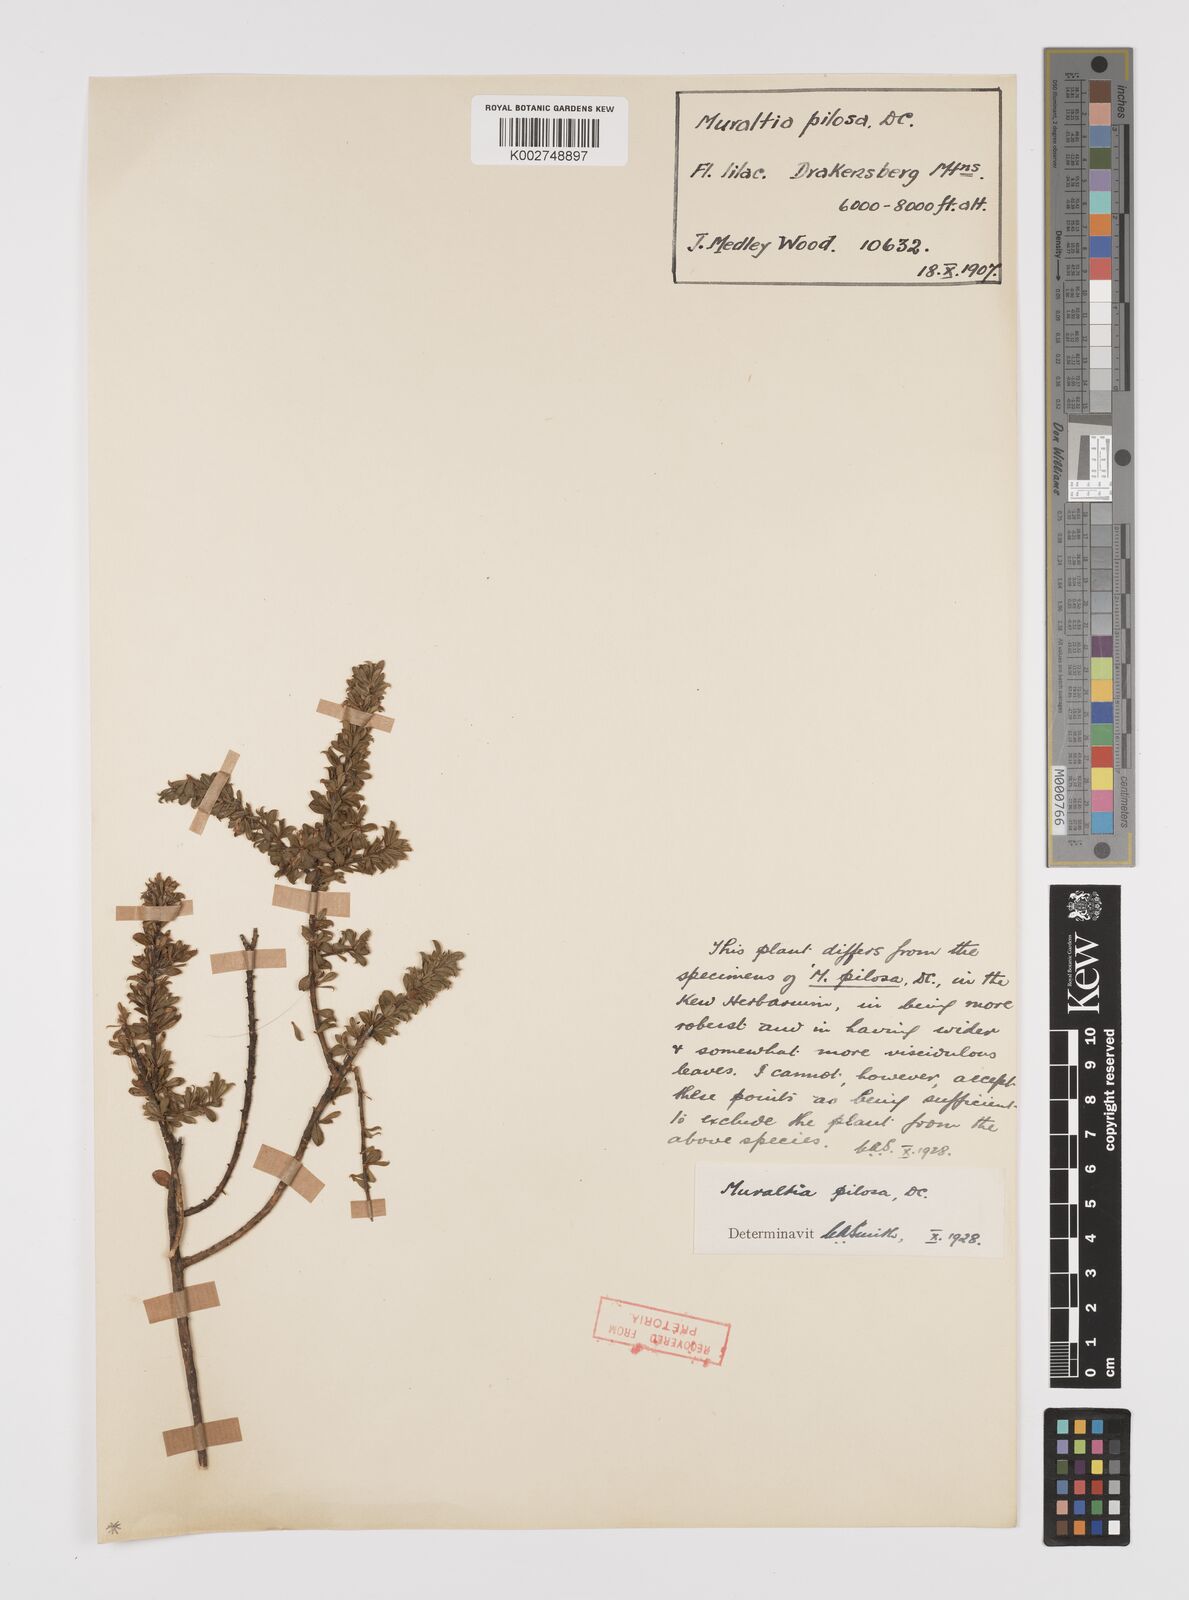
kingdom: Plantae
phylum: Tracheophyta
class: Magnoliopsida
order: Fabales
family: Polygalaceae
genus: Muraltia
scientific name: Muraltia saxicola
